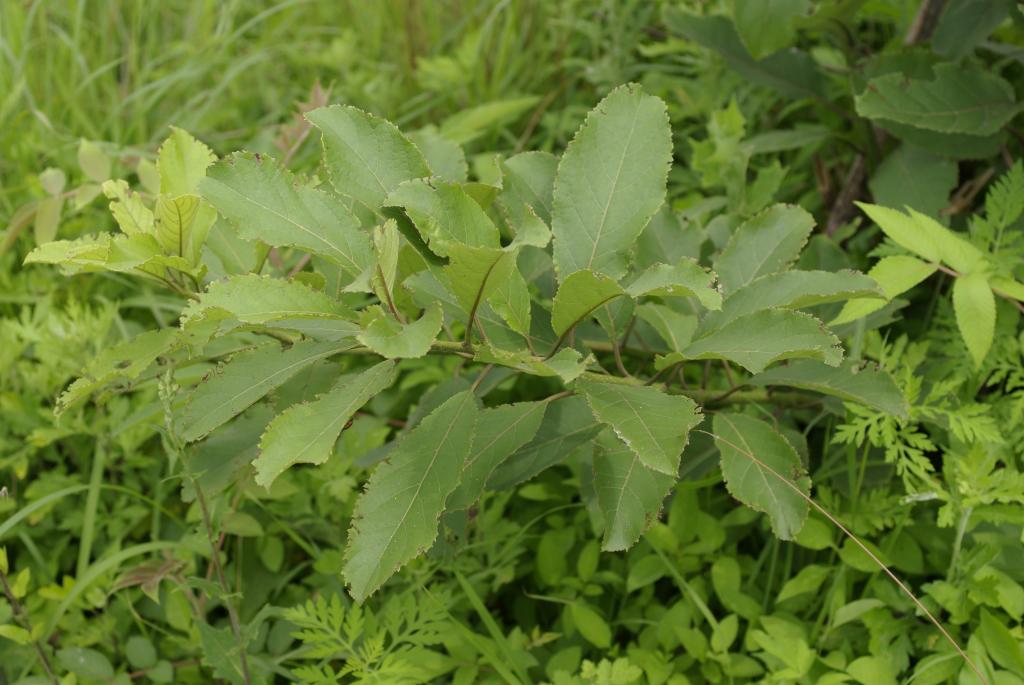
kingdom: Plantae
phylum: Tracheophyta
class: Magnoliopsida
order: Boraginales
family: Ehretiaceae
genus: Ehretia
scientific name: Ehretia acuminata
